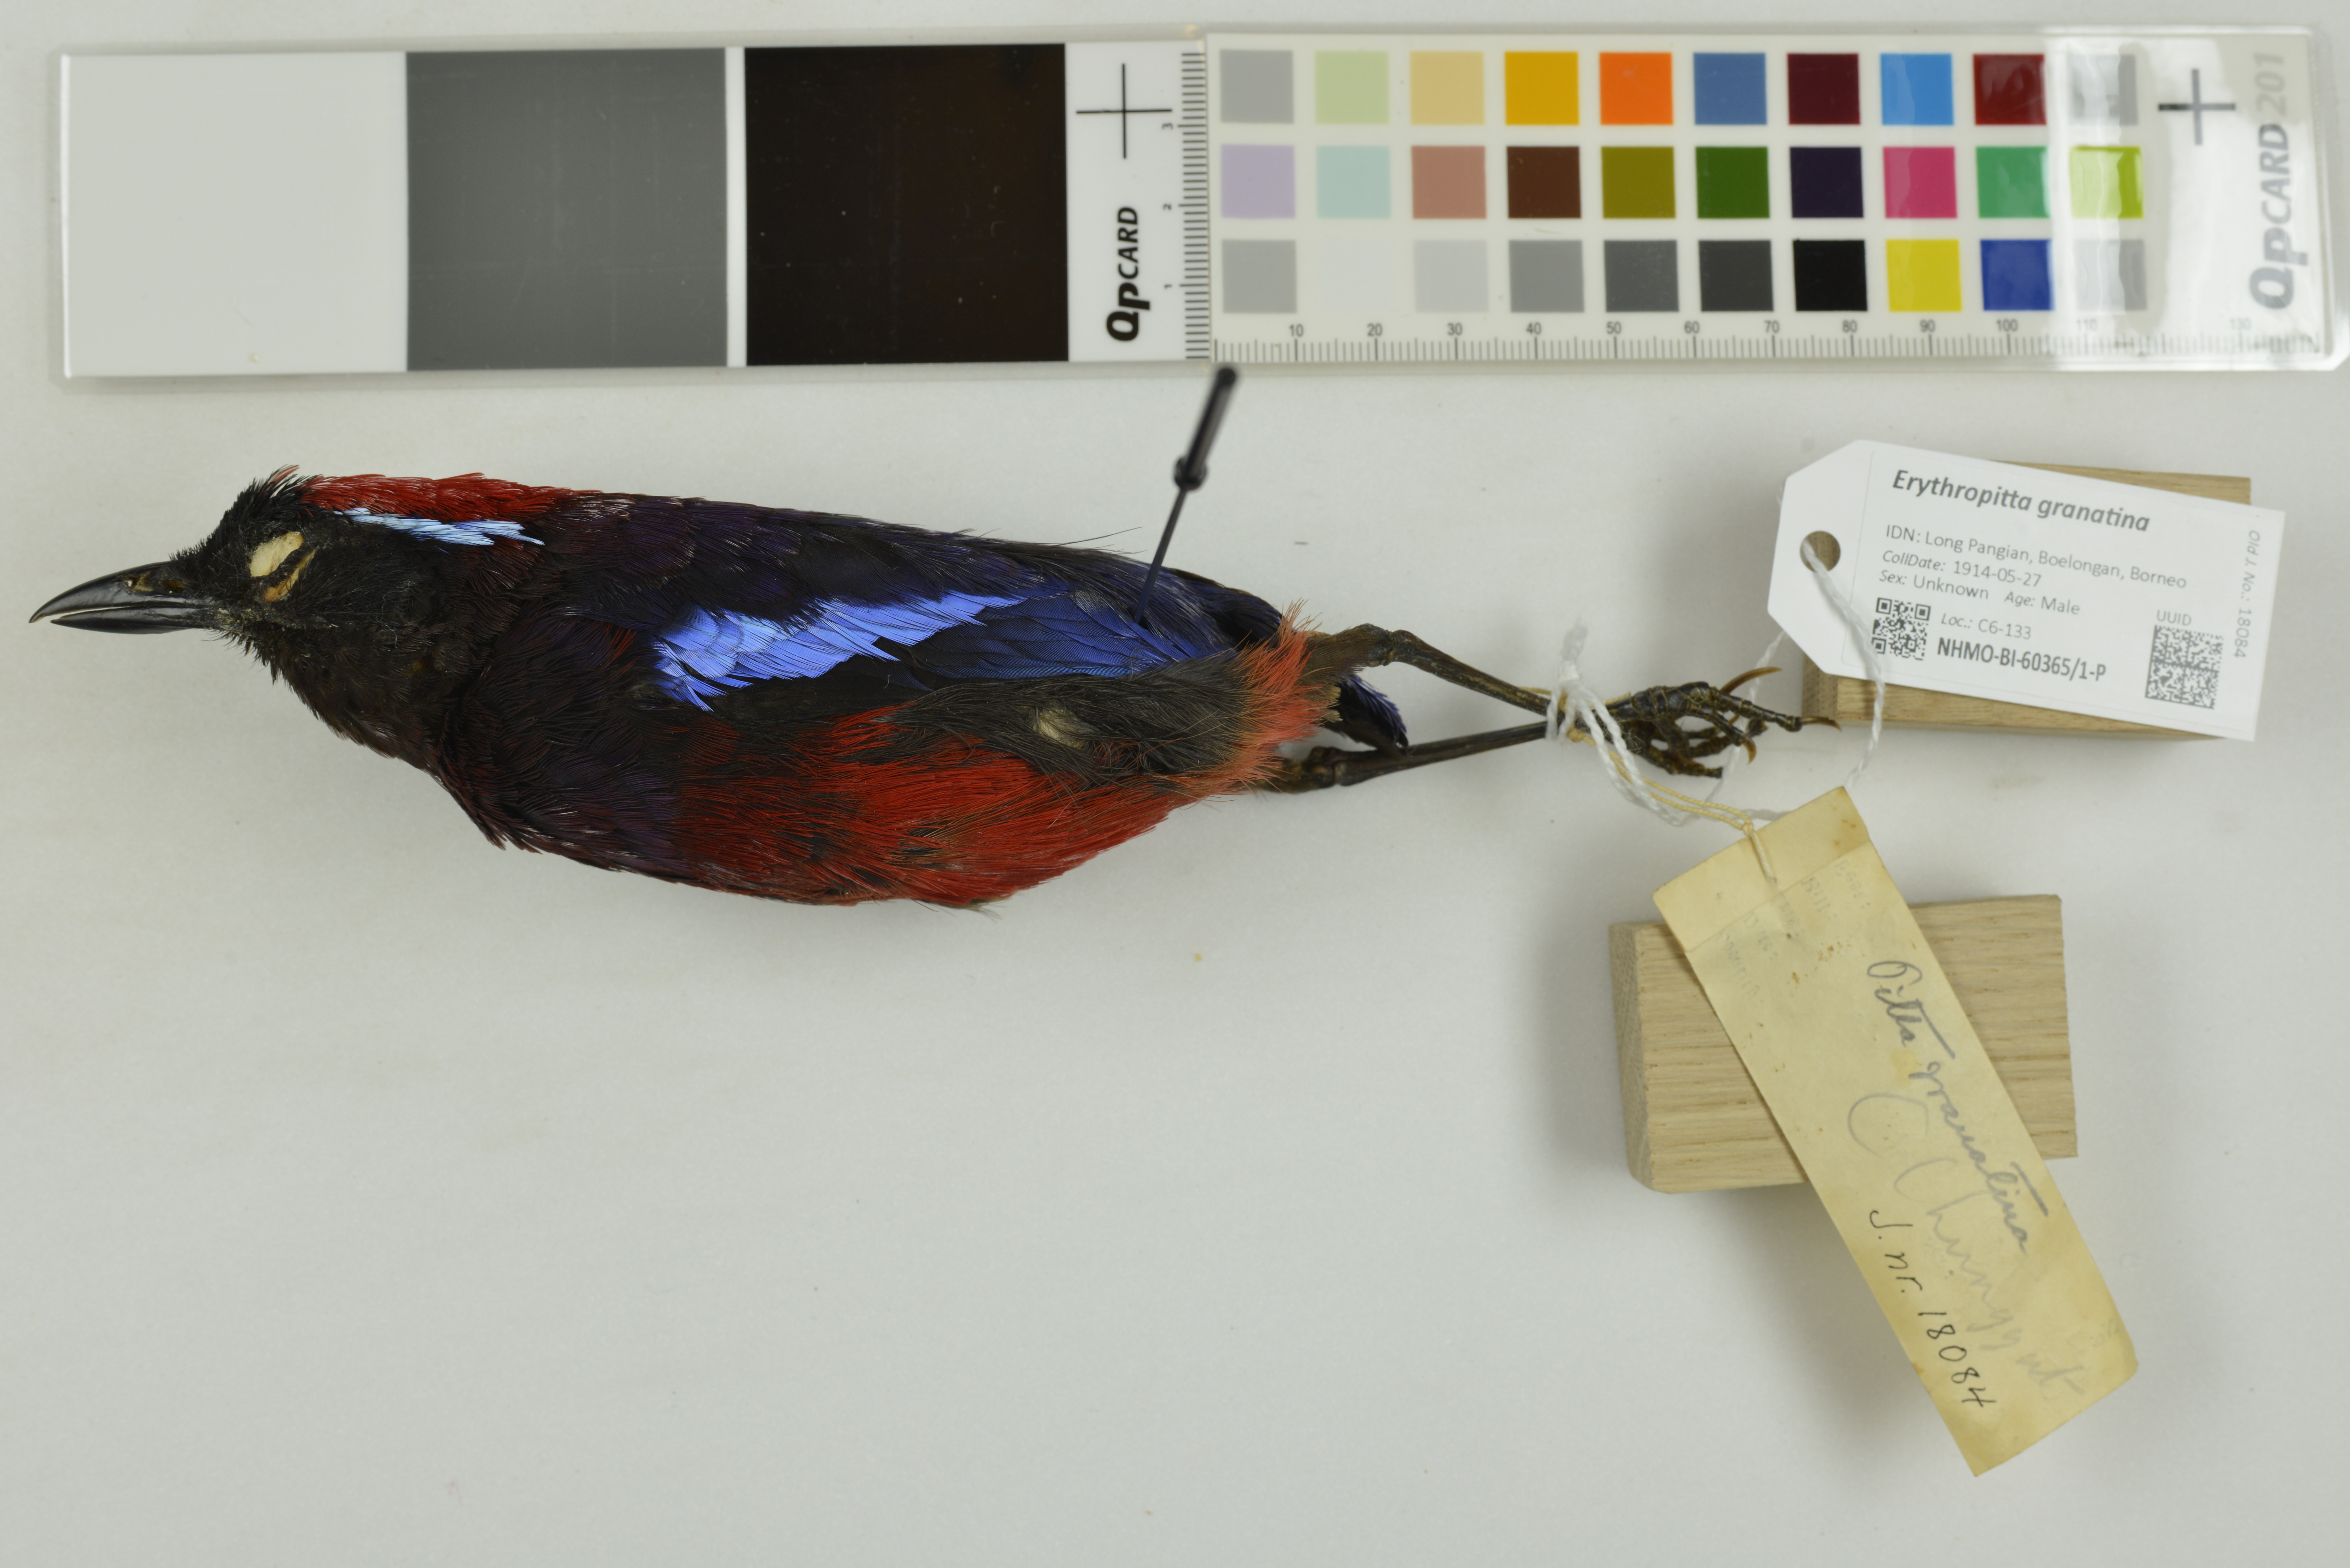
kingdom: Animalia
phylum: Chordata
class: Aves
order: Passeriformes
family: Pittidae
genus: Pitta
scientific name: Pitta granatina
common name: Garnet pitta
